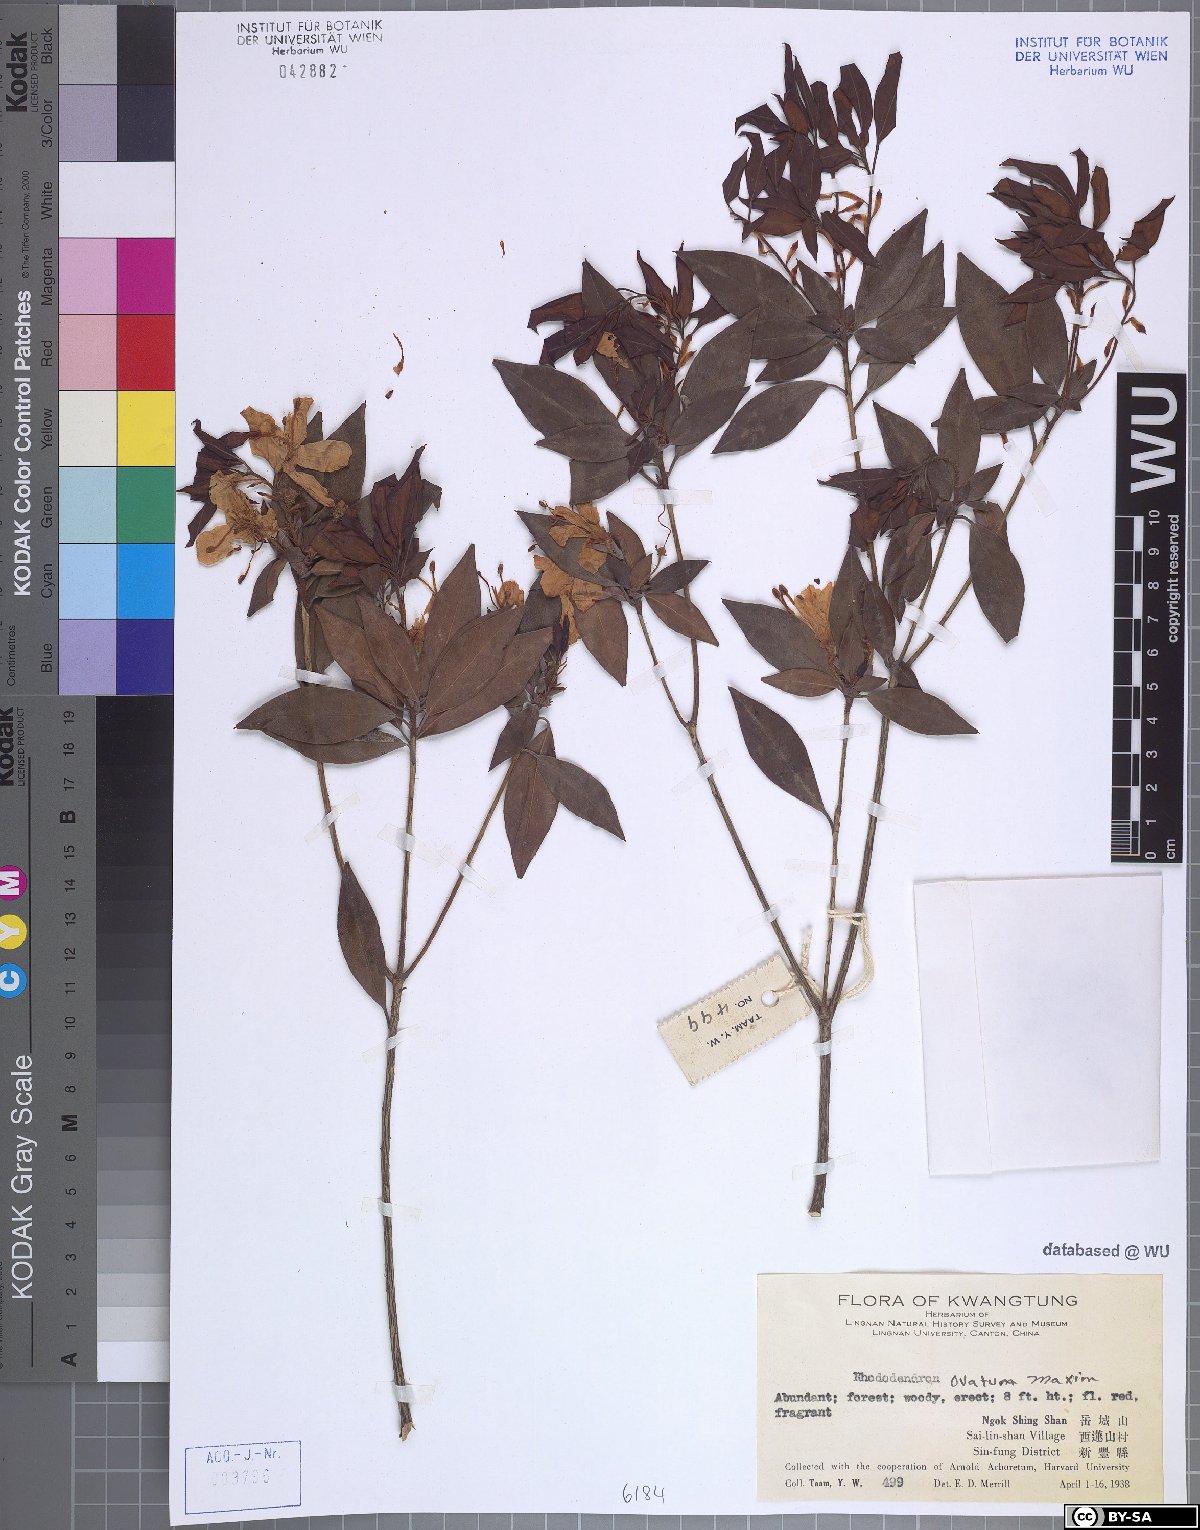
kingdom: Plantae
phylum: Tracheophyta
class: Magnoliopsida
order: Ericales
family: Ericaceae
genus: Rhododendron
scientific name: Rhododendron ovatum
